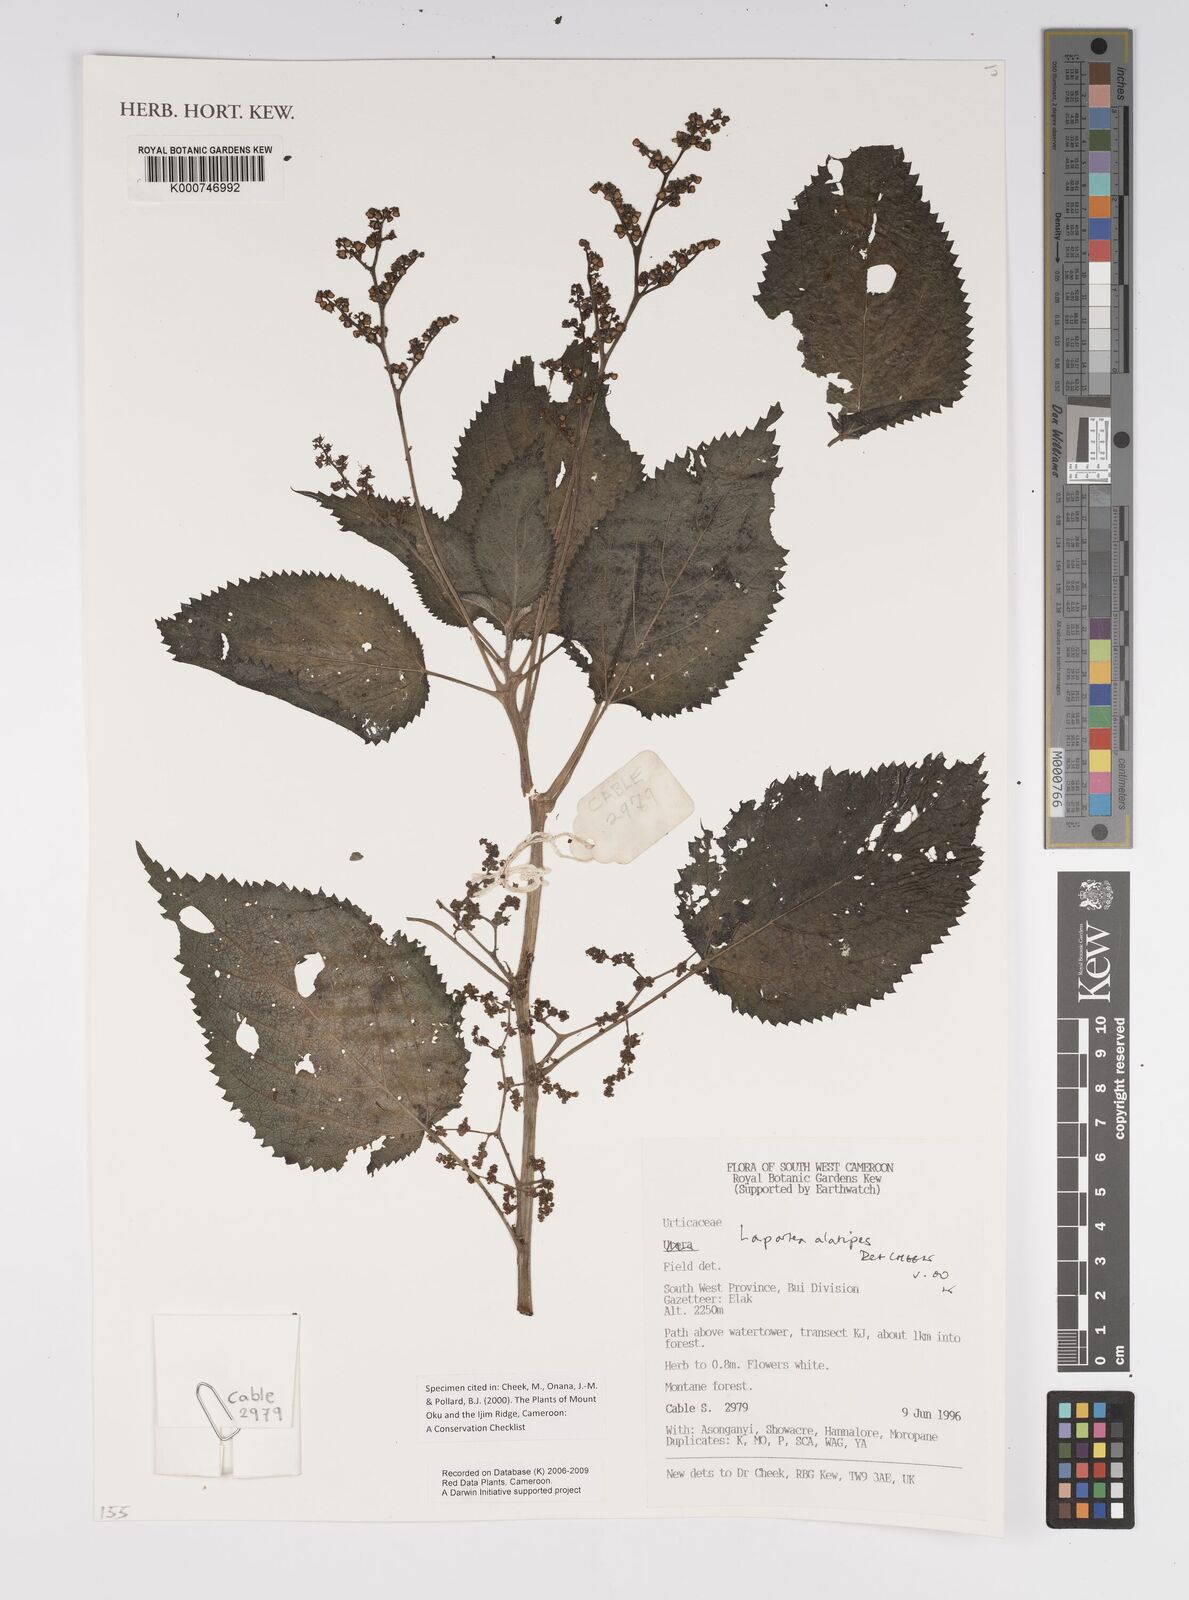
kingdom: Plantae
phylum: Tracheophyta
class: Magnoliopsida
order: Rosales
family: Urticaceae
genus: Laportea
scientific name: Laportea alatipes
